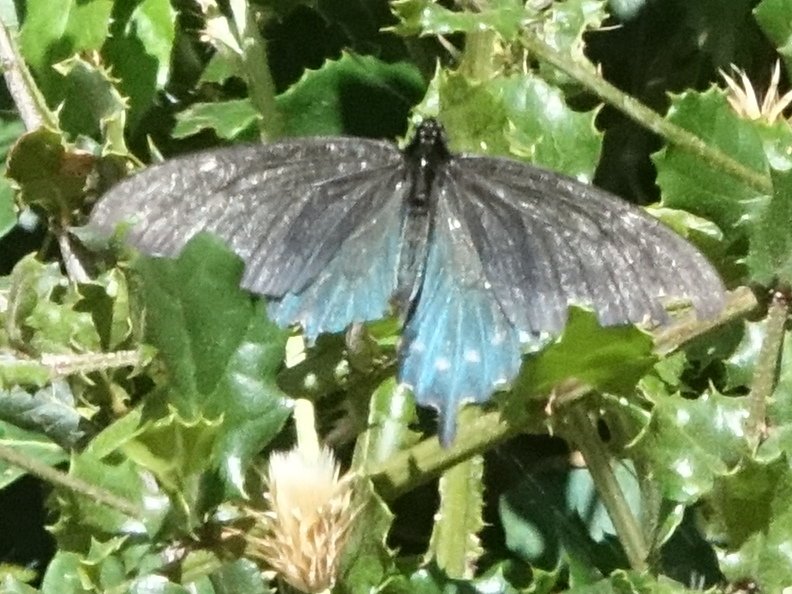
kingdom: Animalia
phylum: Arthropoda
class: Insecta
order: Lepidoptera
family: Papilionidae
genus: Battus
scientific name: Battus philenor
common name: Pipevine Swallowtail
